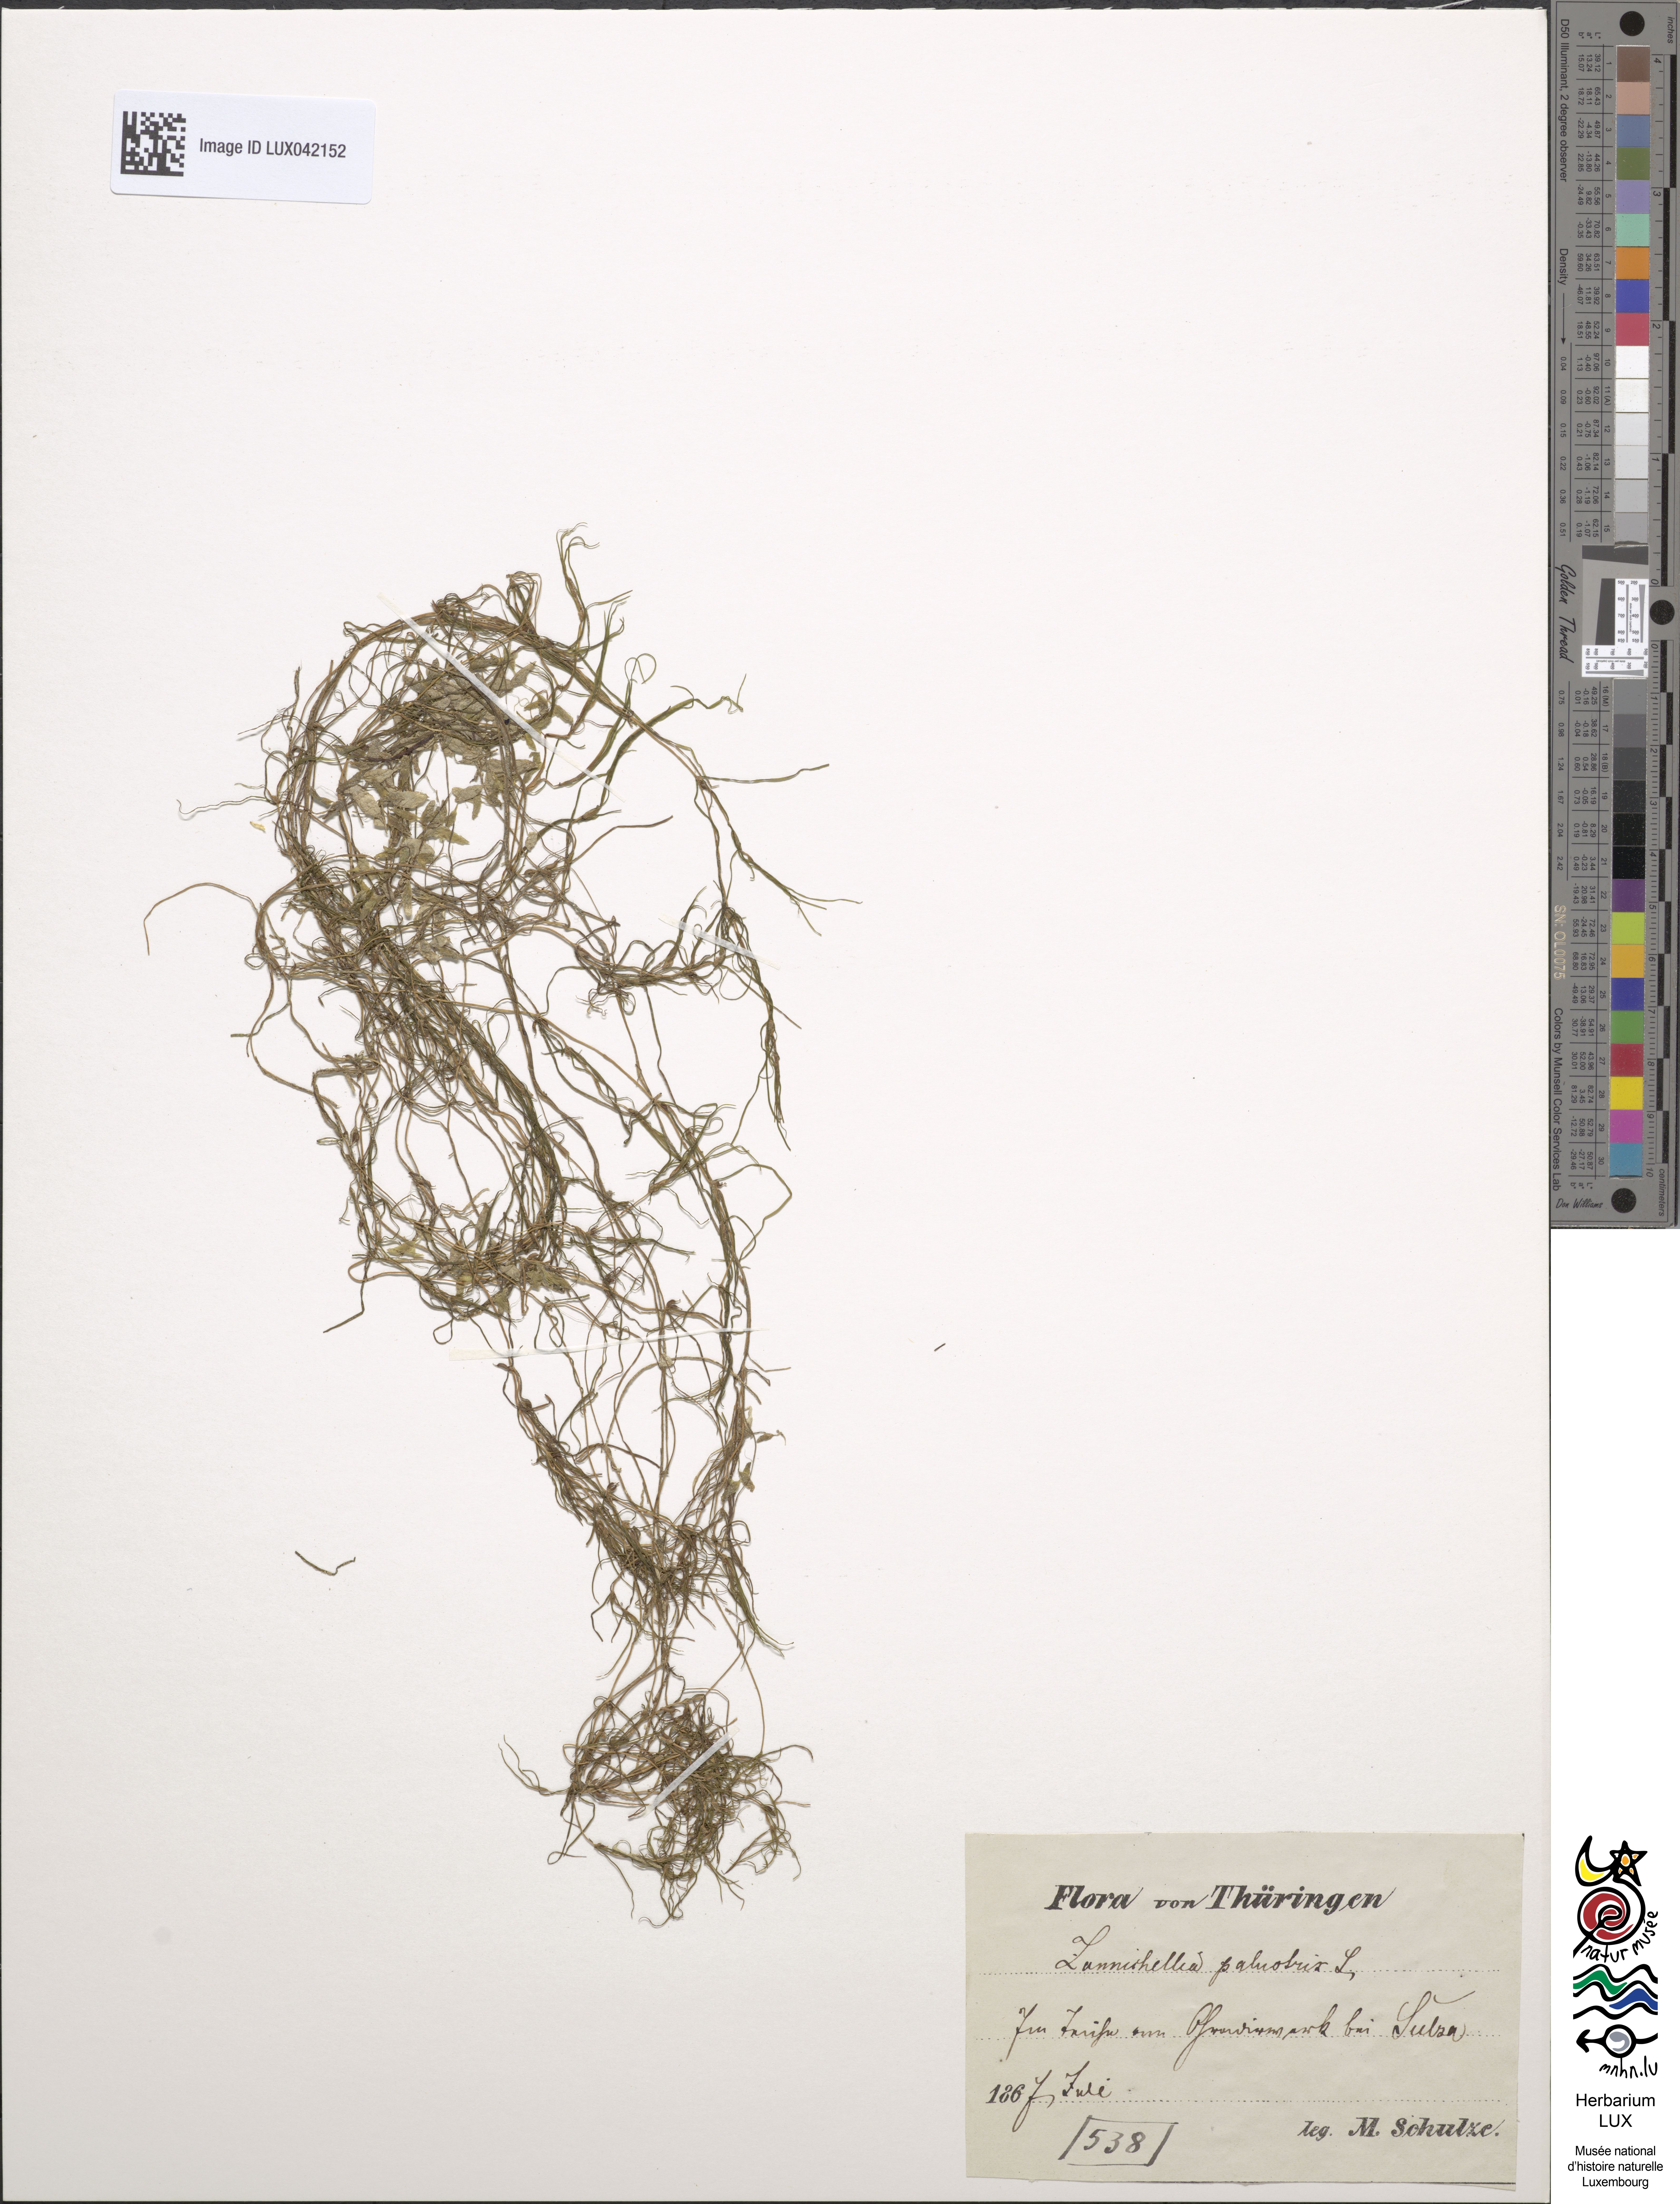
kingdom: Plantae
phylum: Tracheophyta
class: Liliopsida
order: Alismatales
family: Potamogetonaceae
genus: Zannichellia
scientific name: Zannichellia palustris
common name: Horned pondweed
